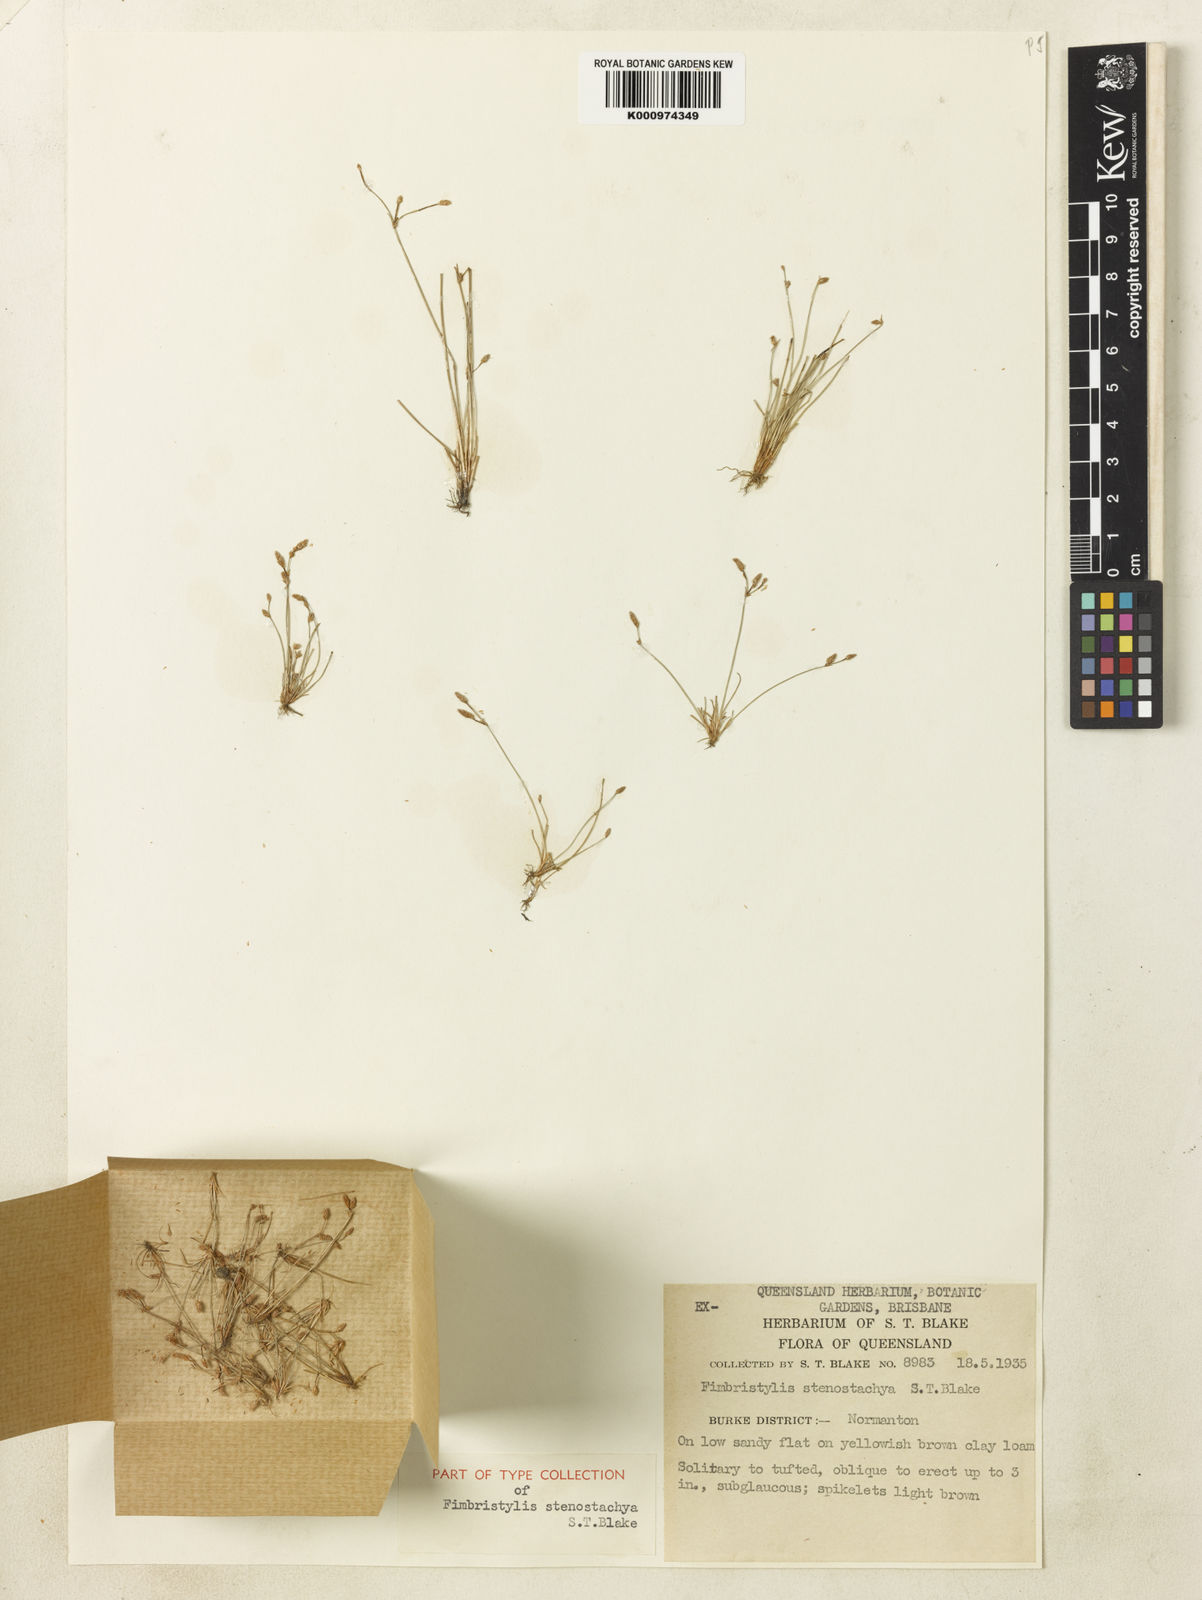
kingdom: Plantae
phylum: Tracheophyta
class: Liliopsida
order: Poales
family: Cyperaceae
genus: Fimbristylis
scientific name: Fimbristylis stenostachya
